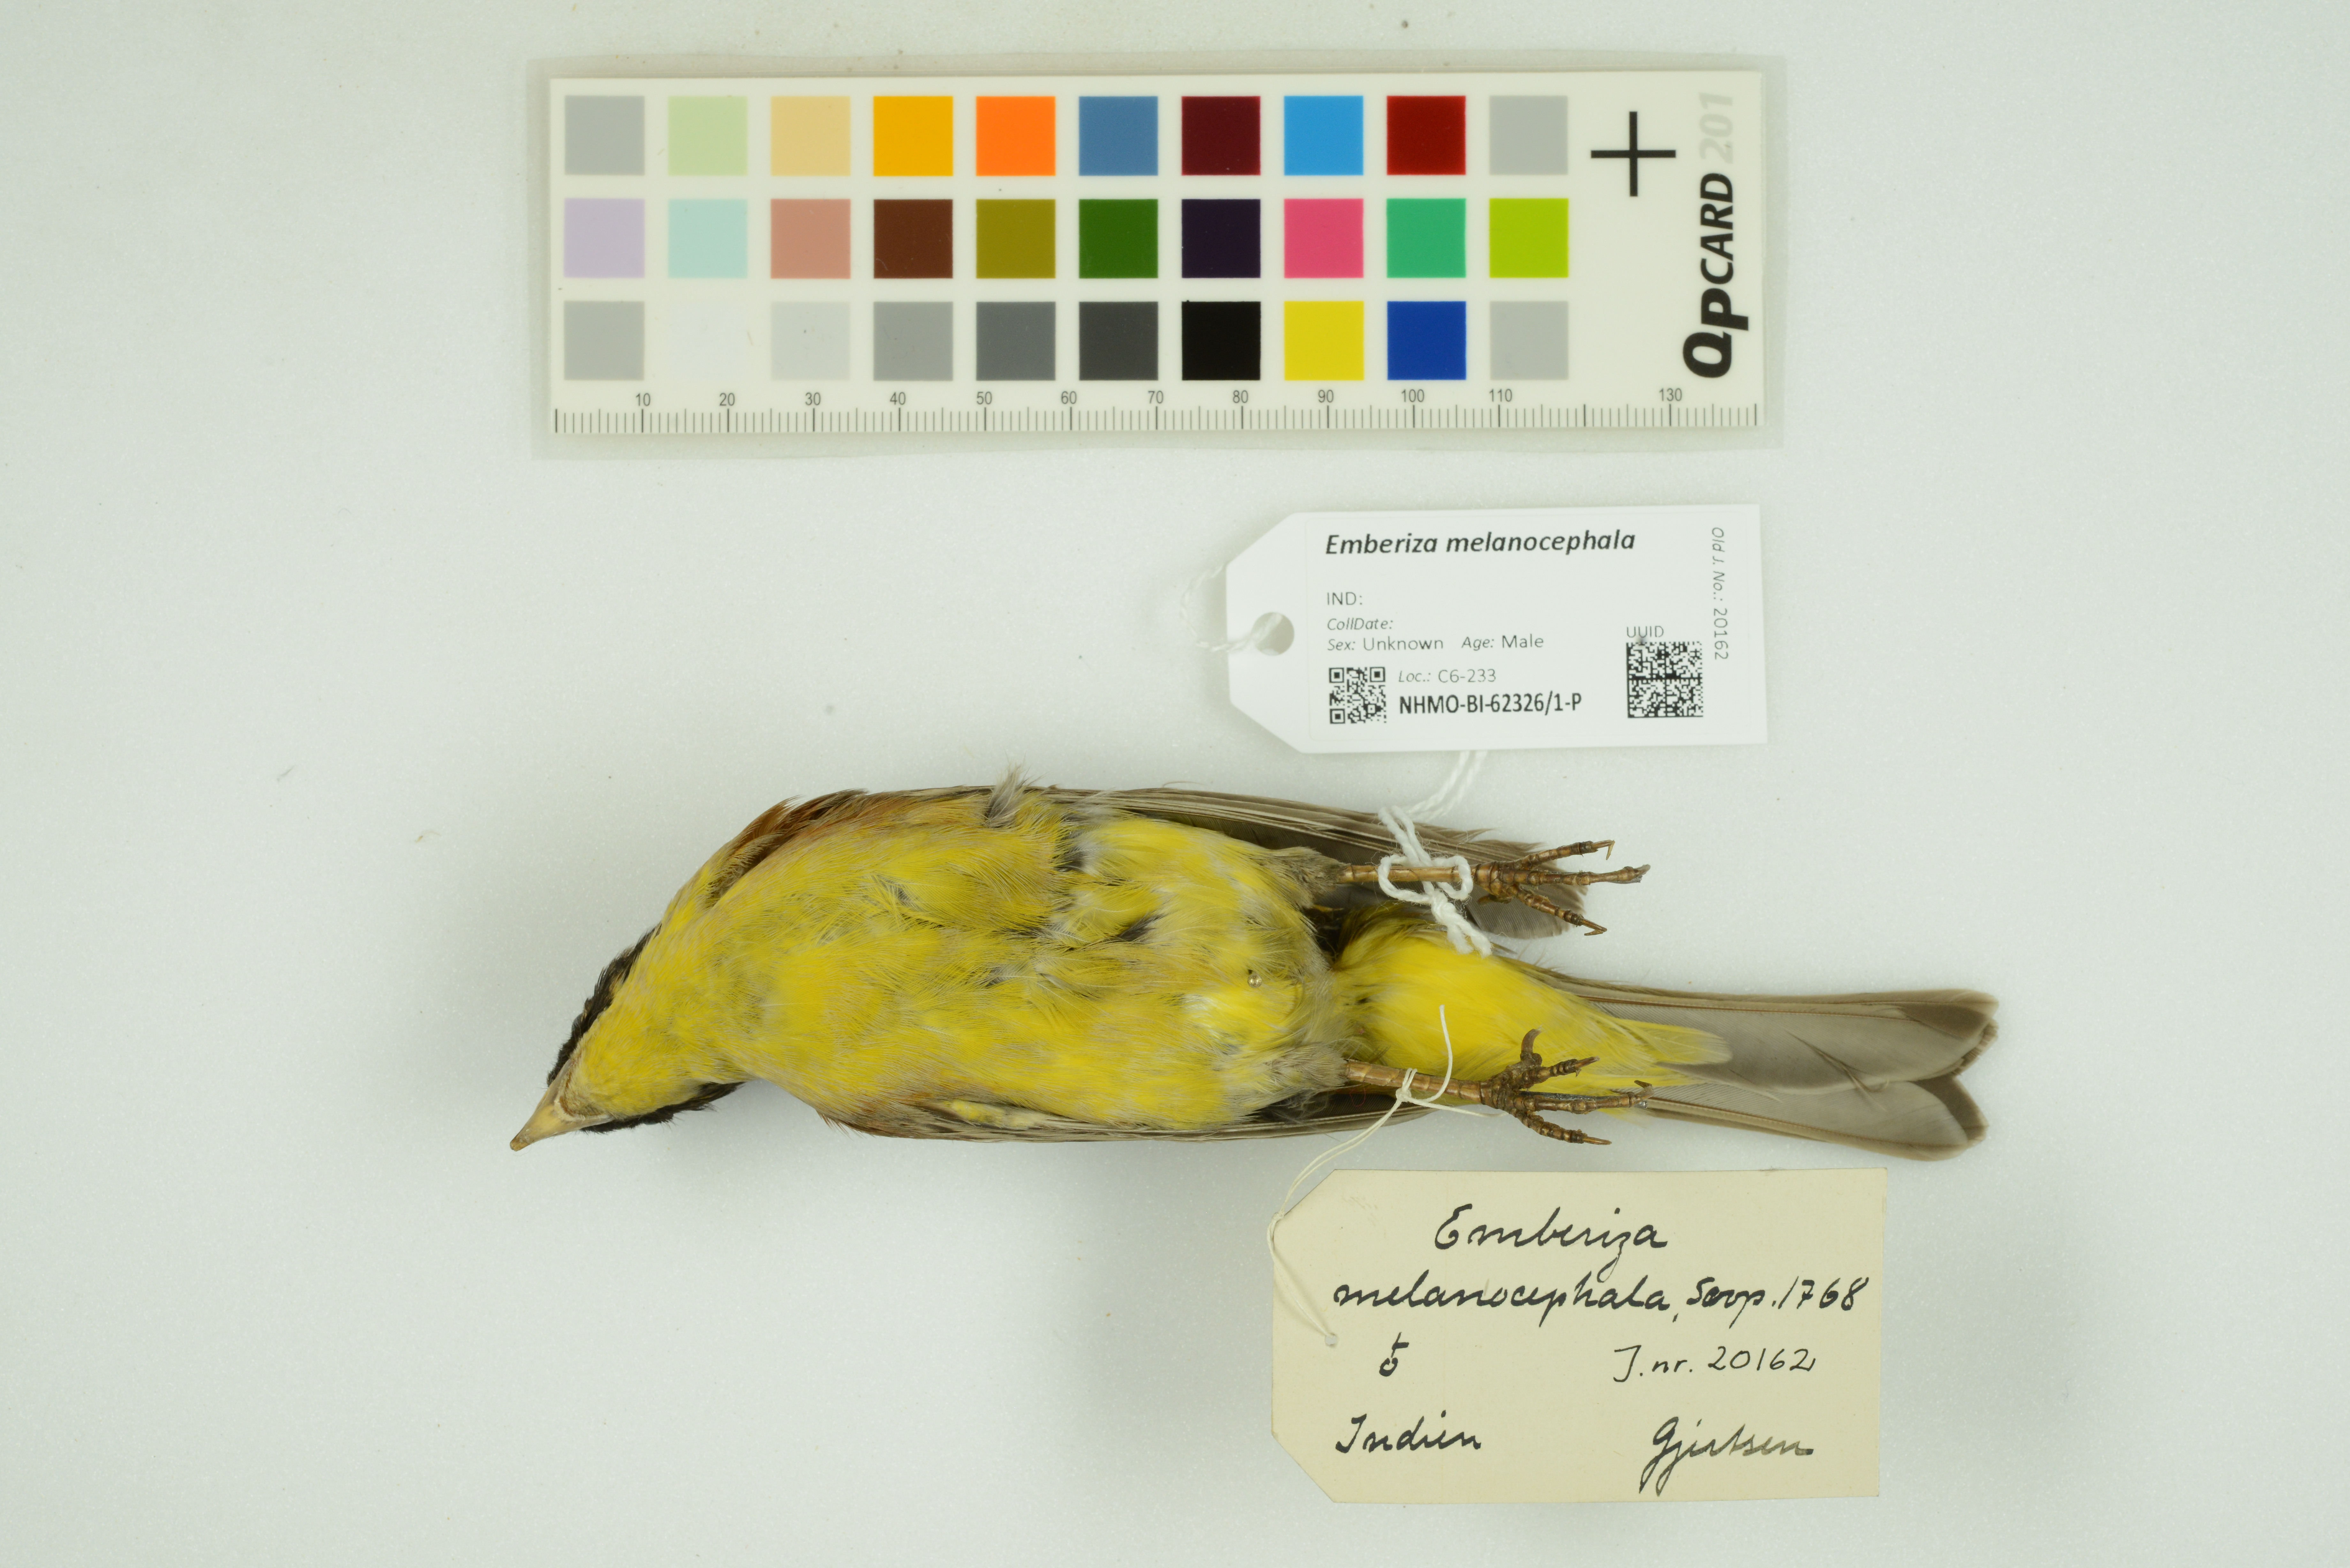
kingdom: Animalia
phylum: Chordata
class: Aves
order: Passeriformes
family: Emberizidae
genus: Emberiza
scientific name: Emberiza melanocephala
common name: Black-headed bunting
